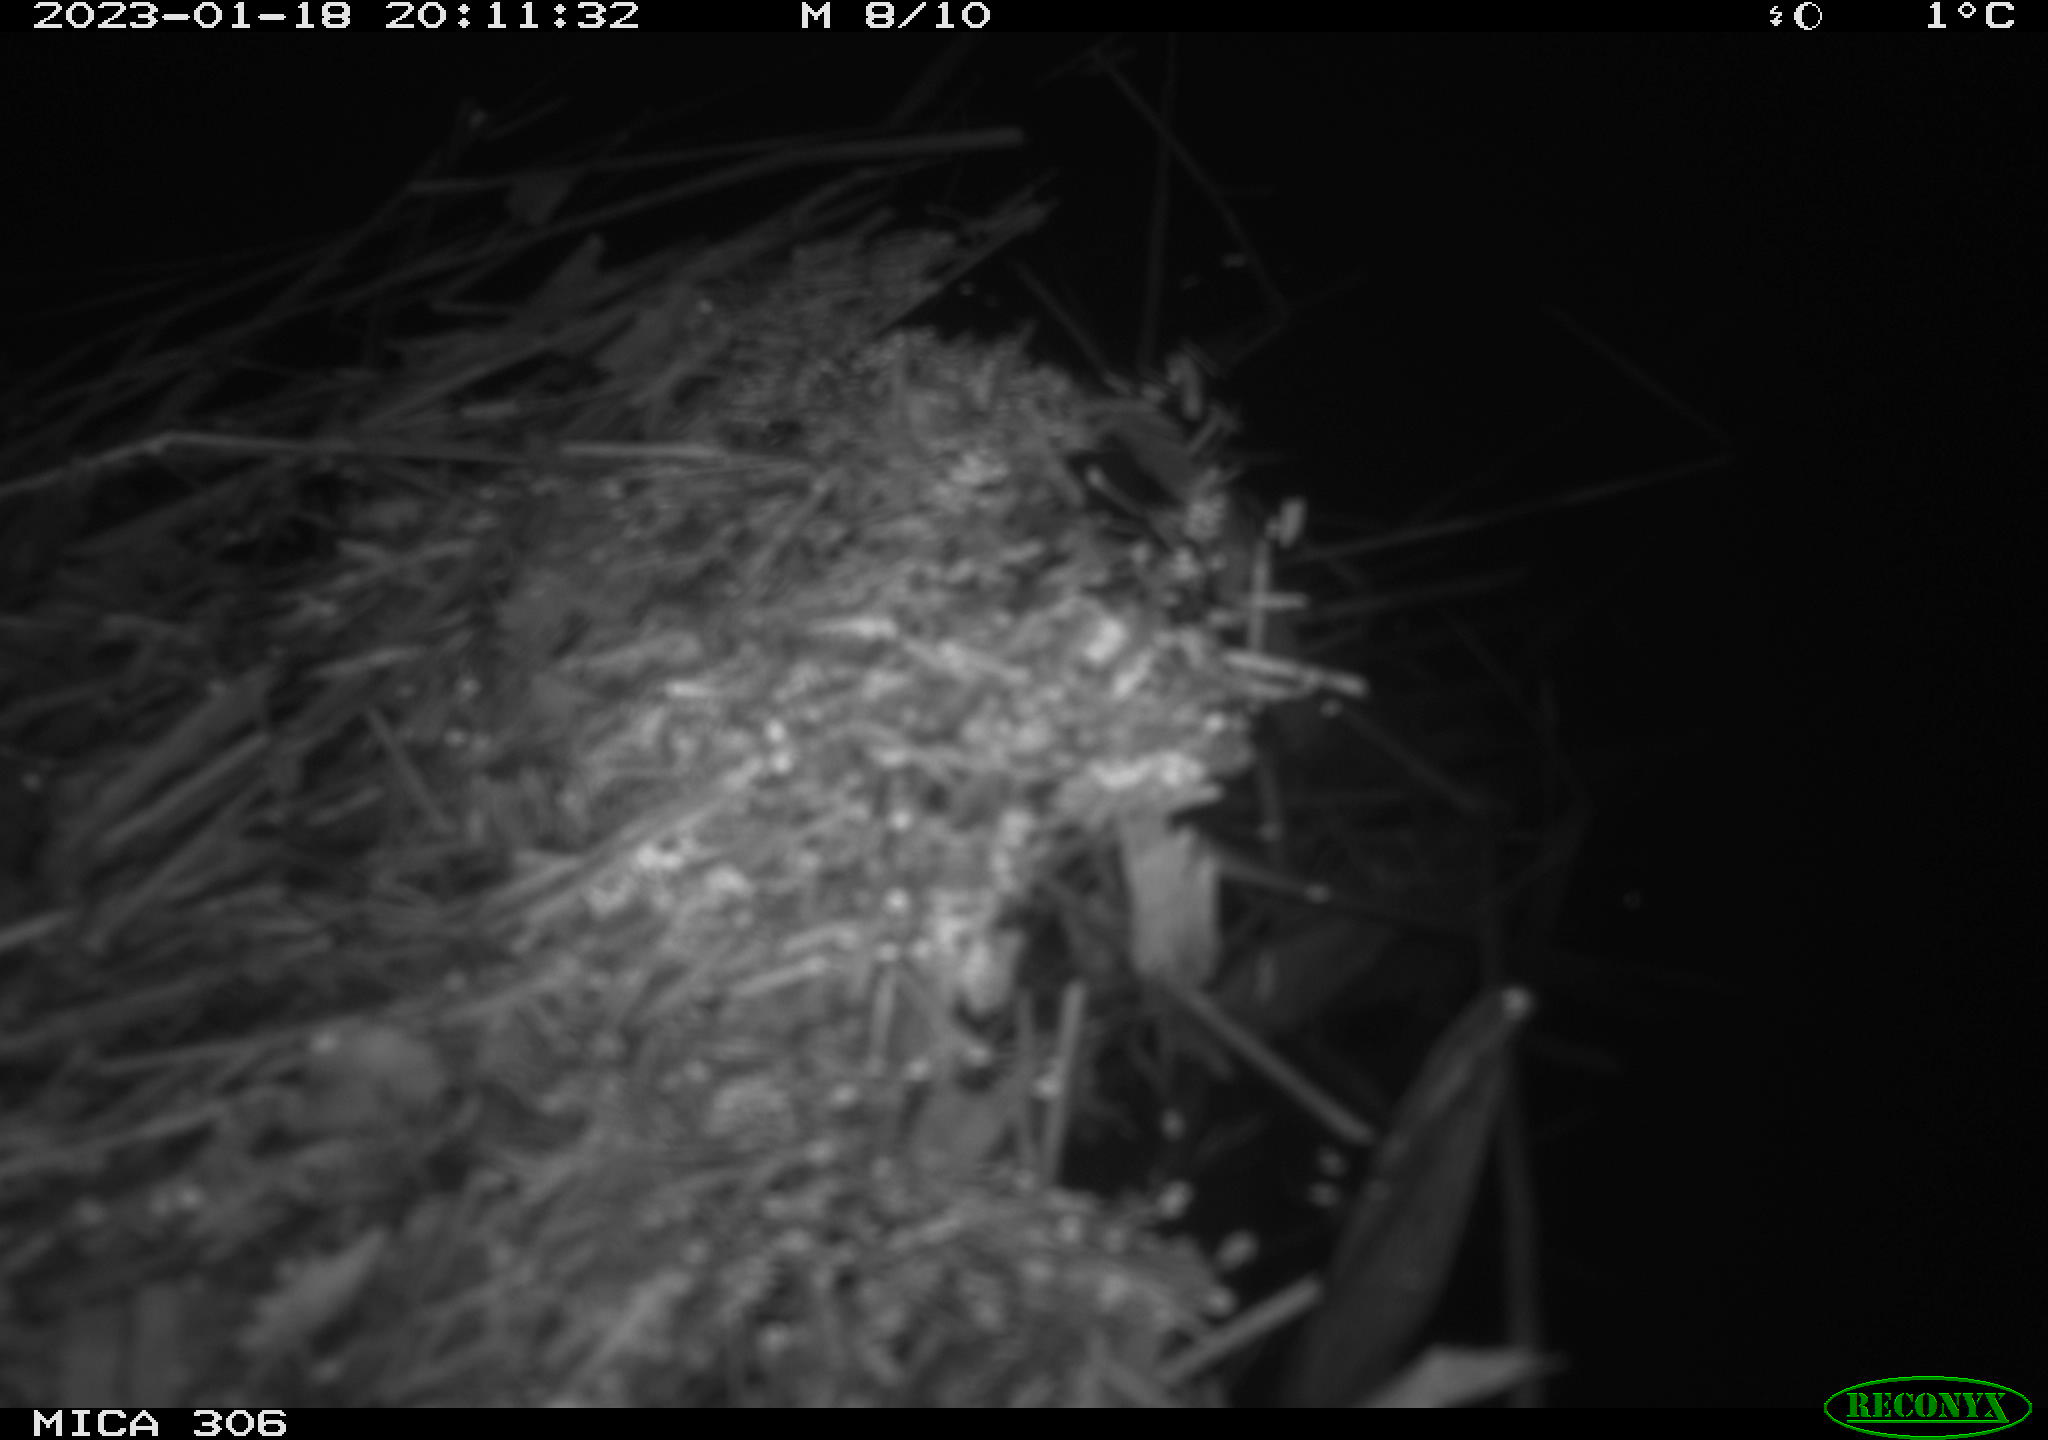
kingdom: Animalia
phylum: Chordata
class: Mammalia
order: Rodentia
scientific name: Rodentia
